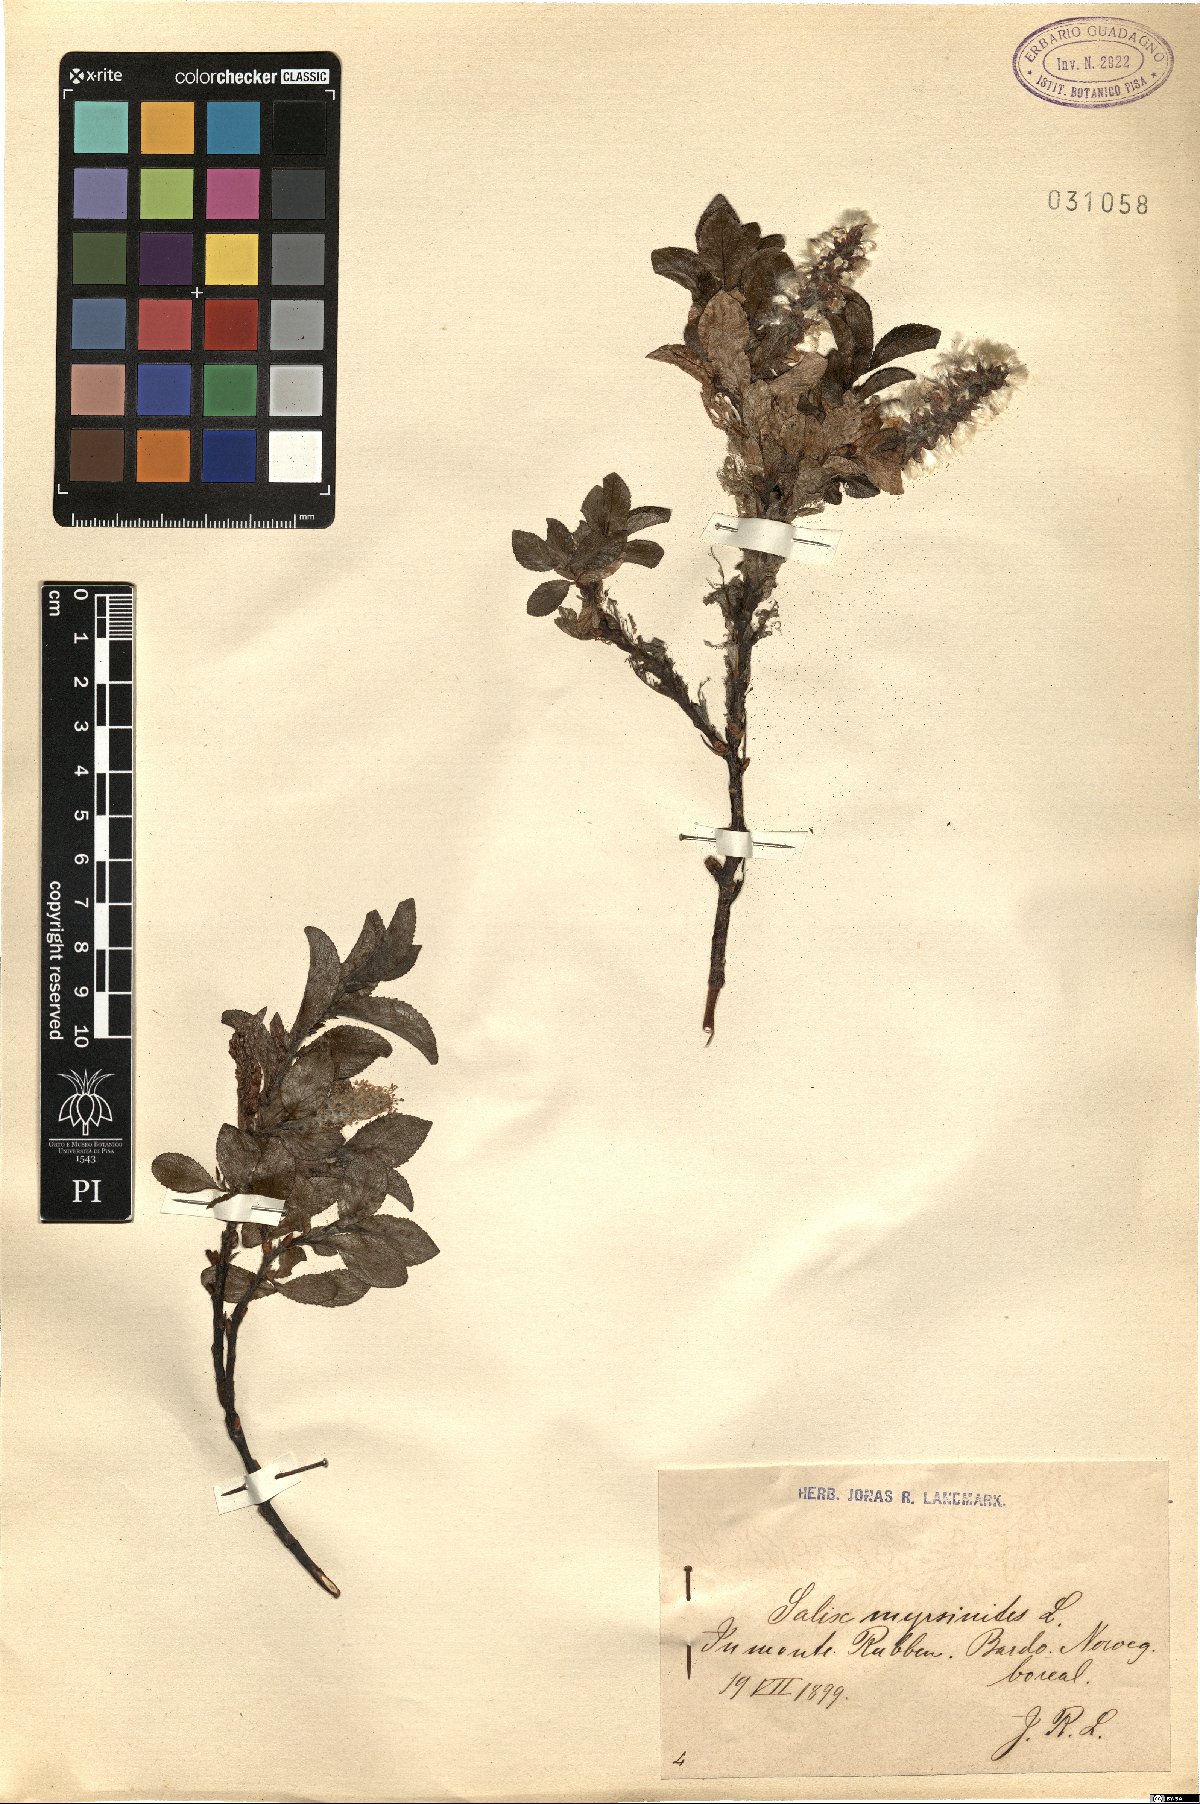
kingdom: Plantae
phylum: Tracheophyta
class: Magnoliopsida
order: Malpighiales
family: Salicaceae
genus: Salix
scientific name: Salix myrsinites
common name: Myrtle willow
